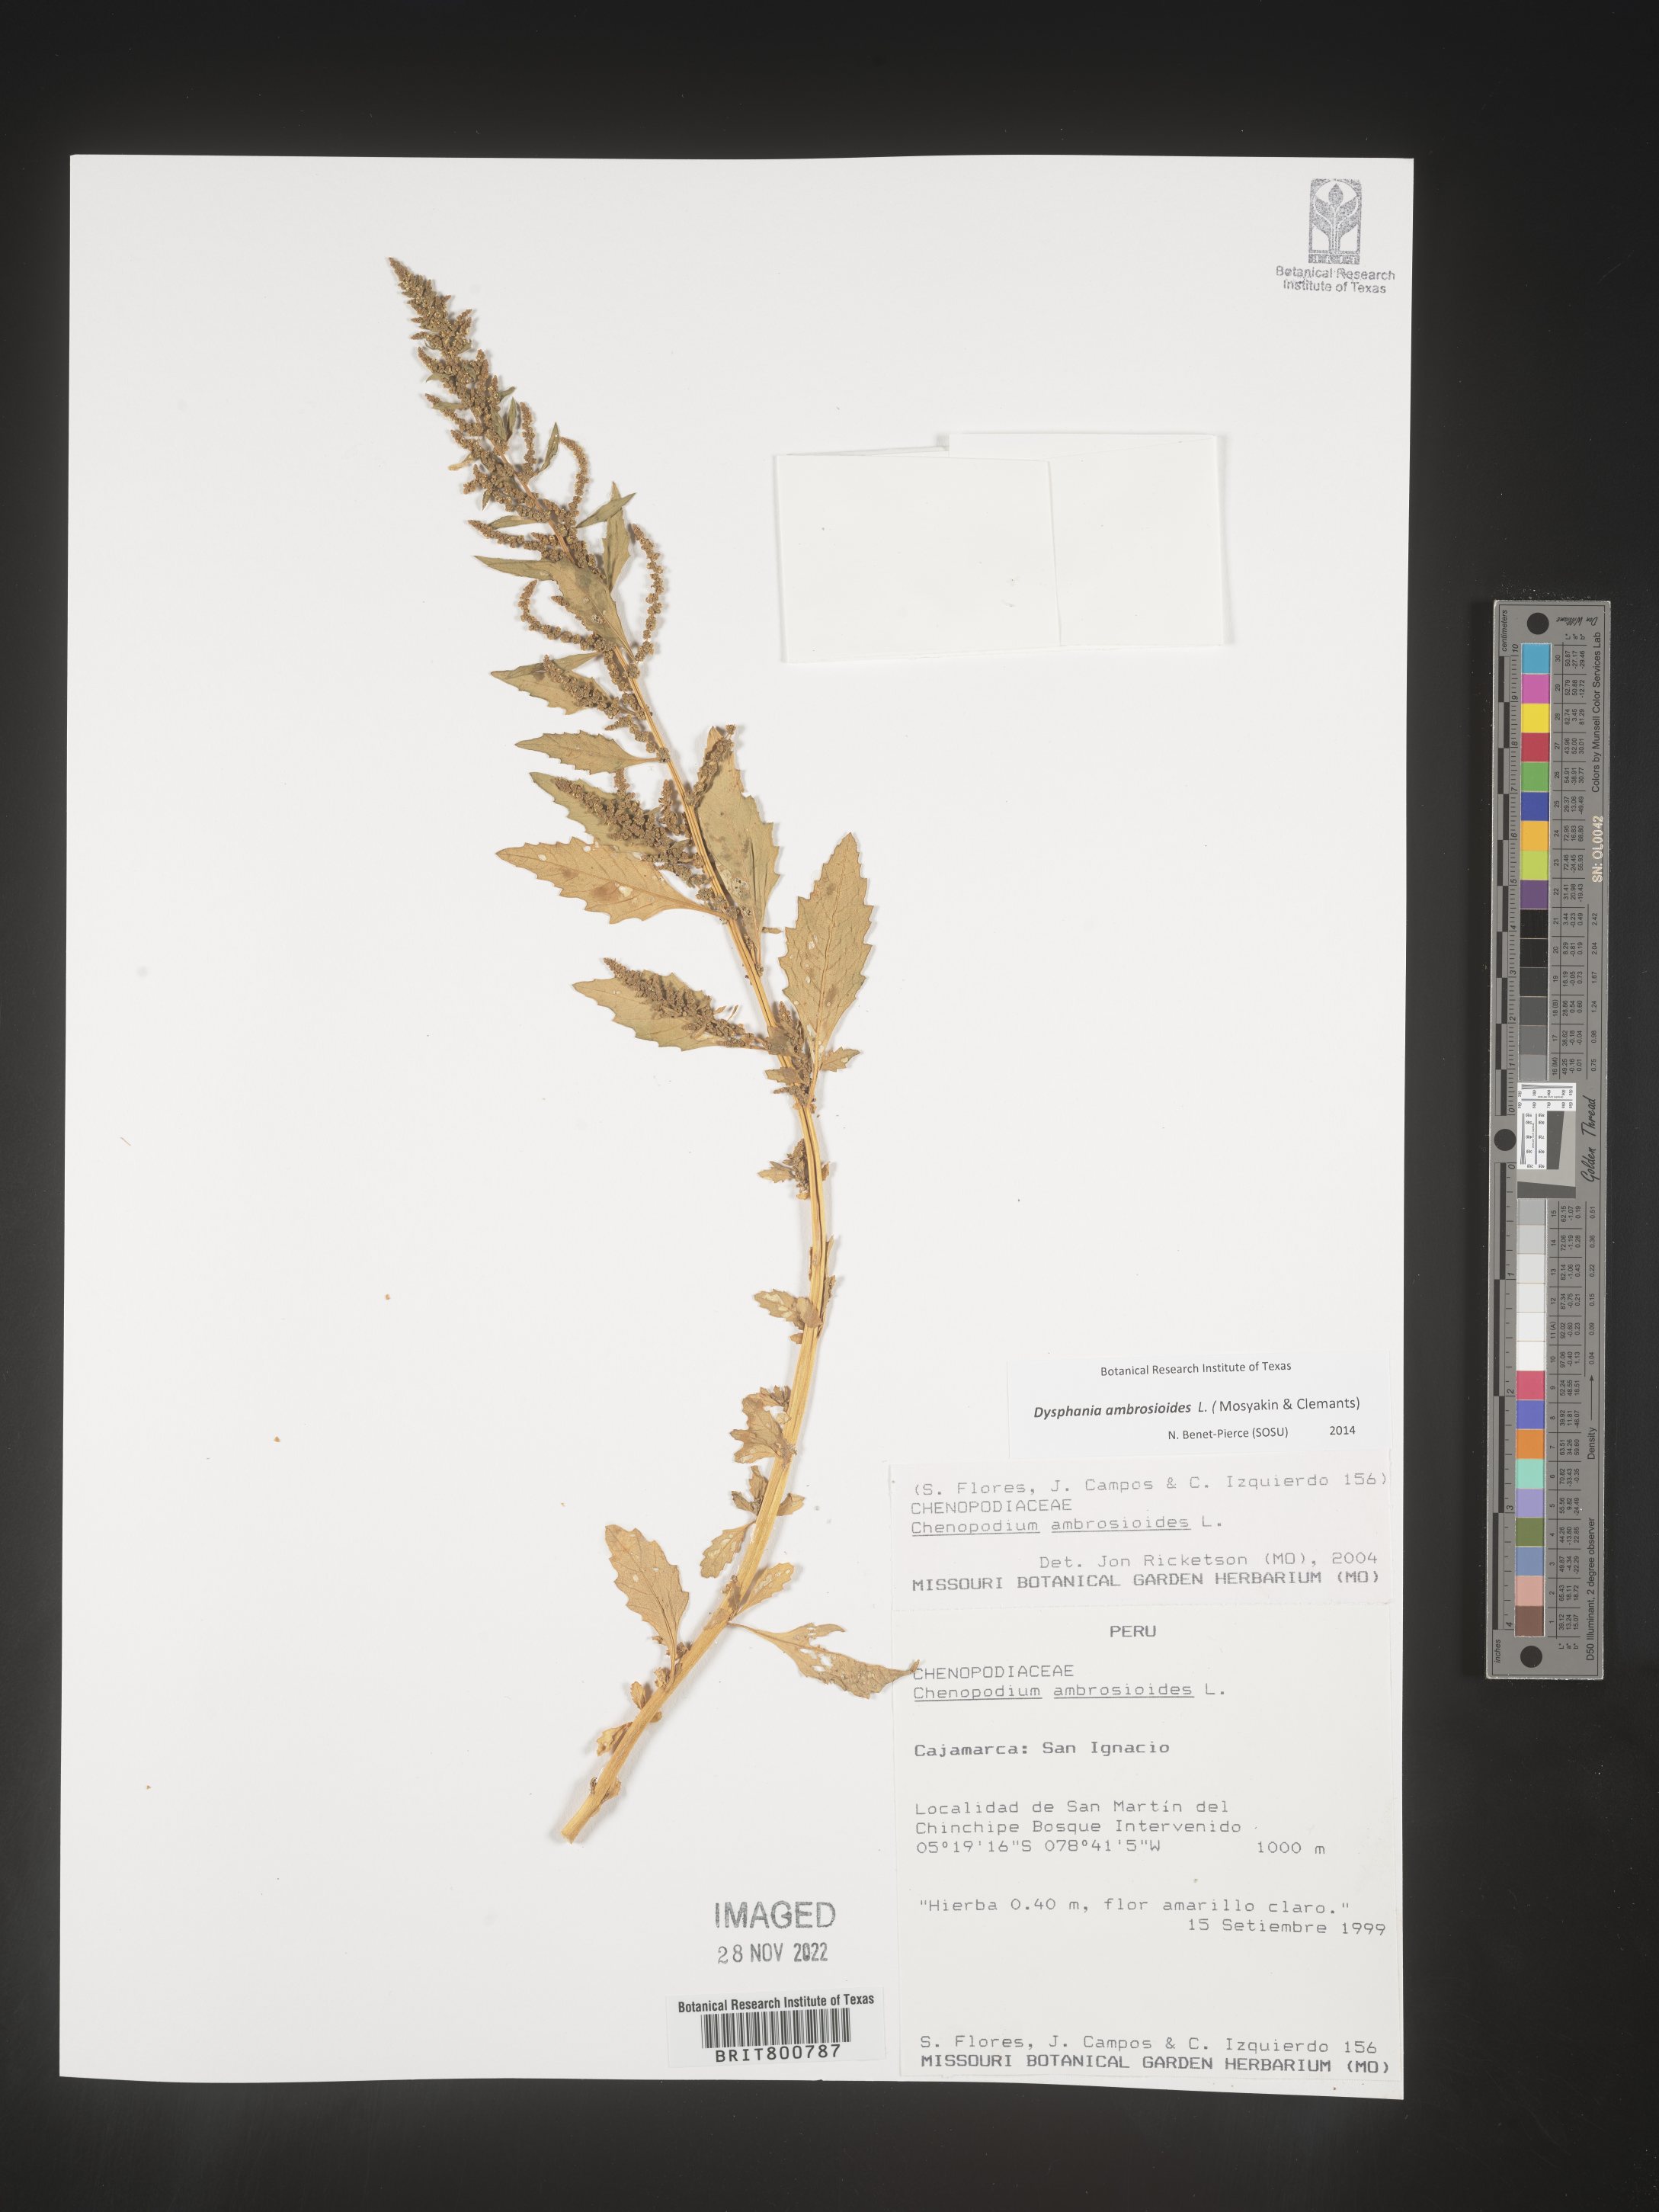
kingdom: Plantae
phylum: Tracheophyta
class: Magnoliopsida
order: Caryophyllales
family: Amaranthaceae
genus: Chenopodium
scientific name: Chenopodium
